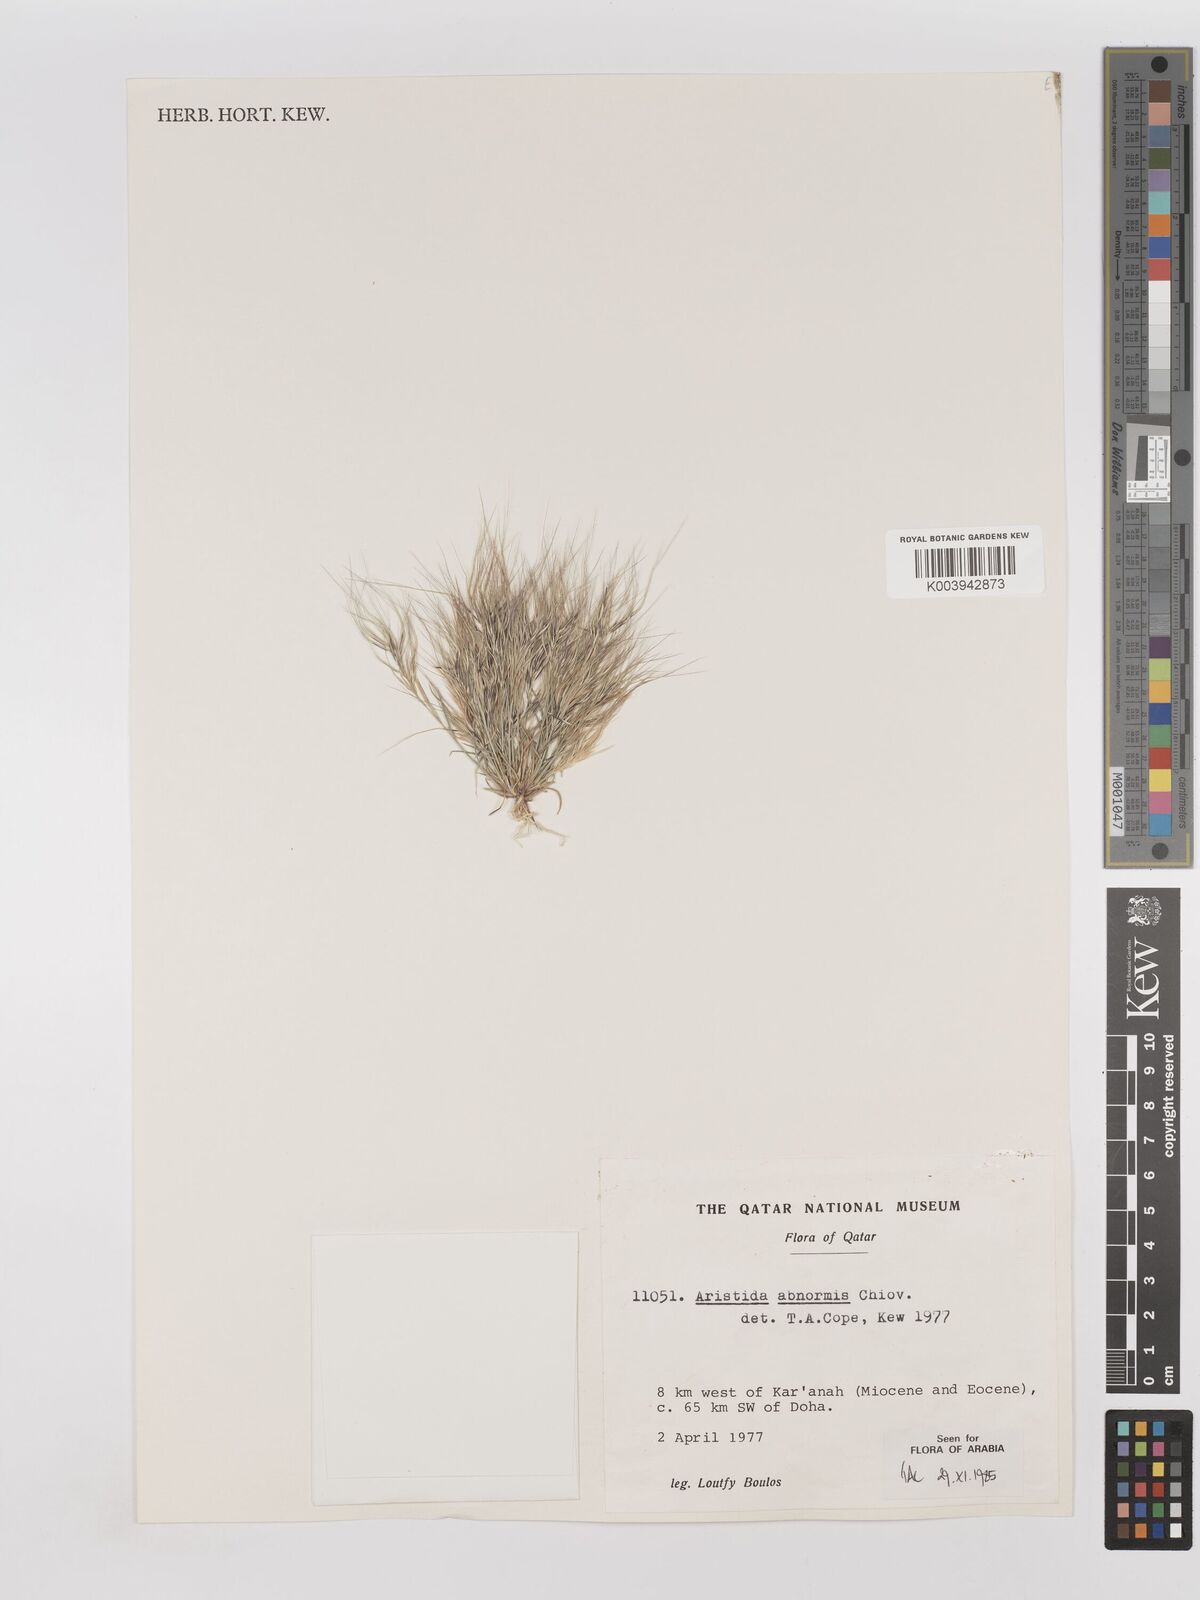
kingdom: Plantae
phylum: Tracheophyta
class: Liliopsida
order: Poales
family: Poaceae
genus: Aristida
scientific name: Aristida abnormis
